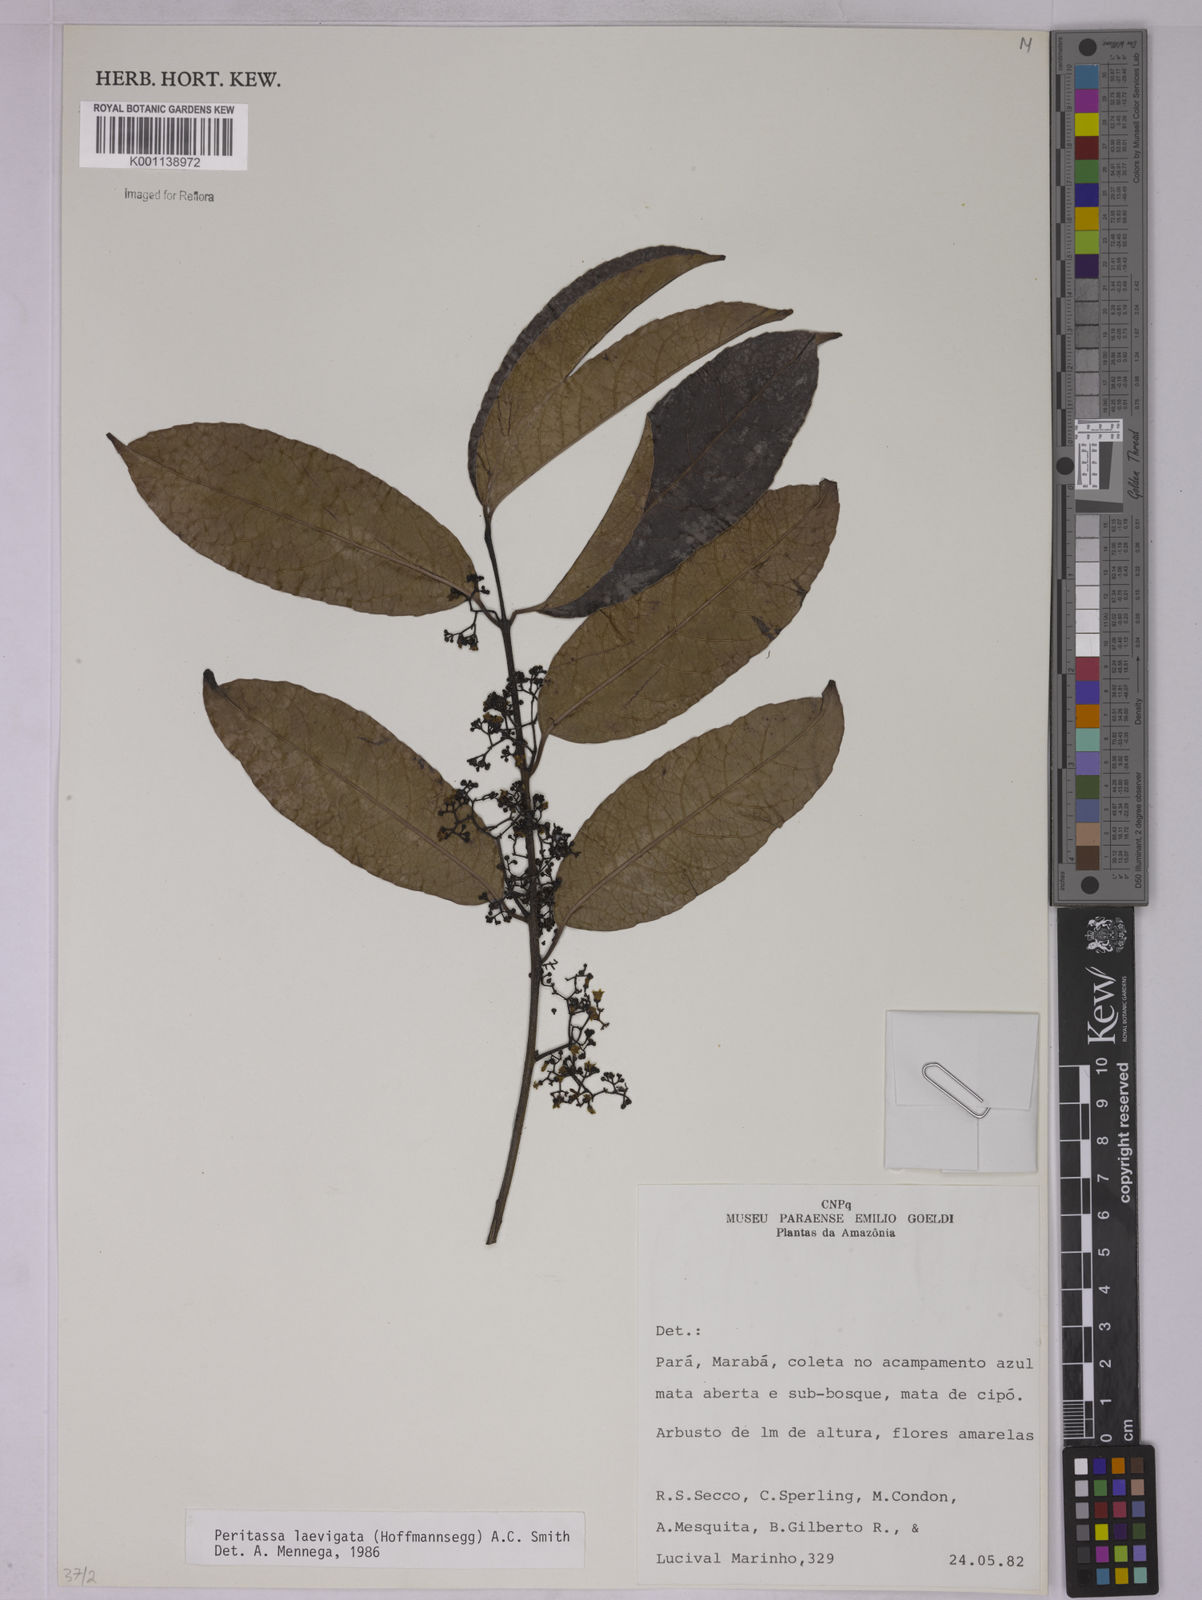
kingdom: Plantae
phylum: Tracheophyta
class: Magnoliopsida
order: Celastrales
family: Celastraceae
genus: Peritassa
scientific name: Peritassa laevigata
